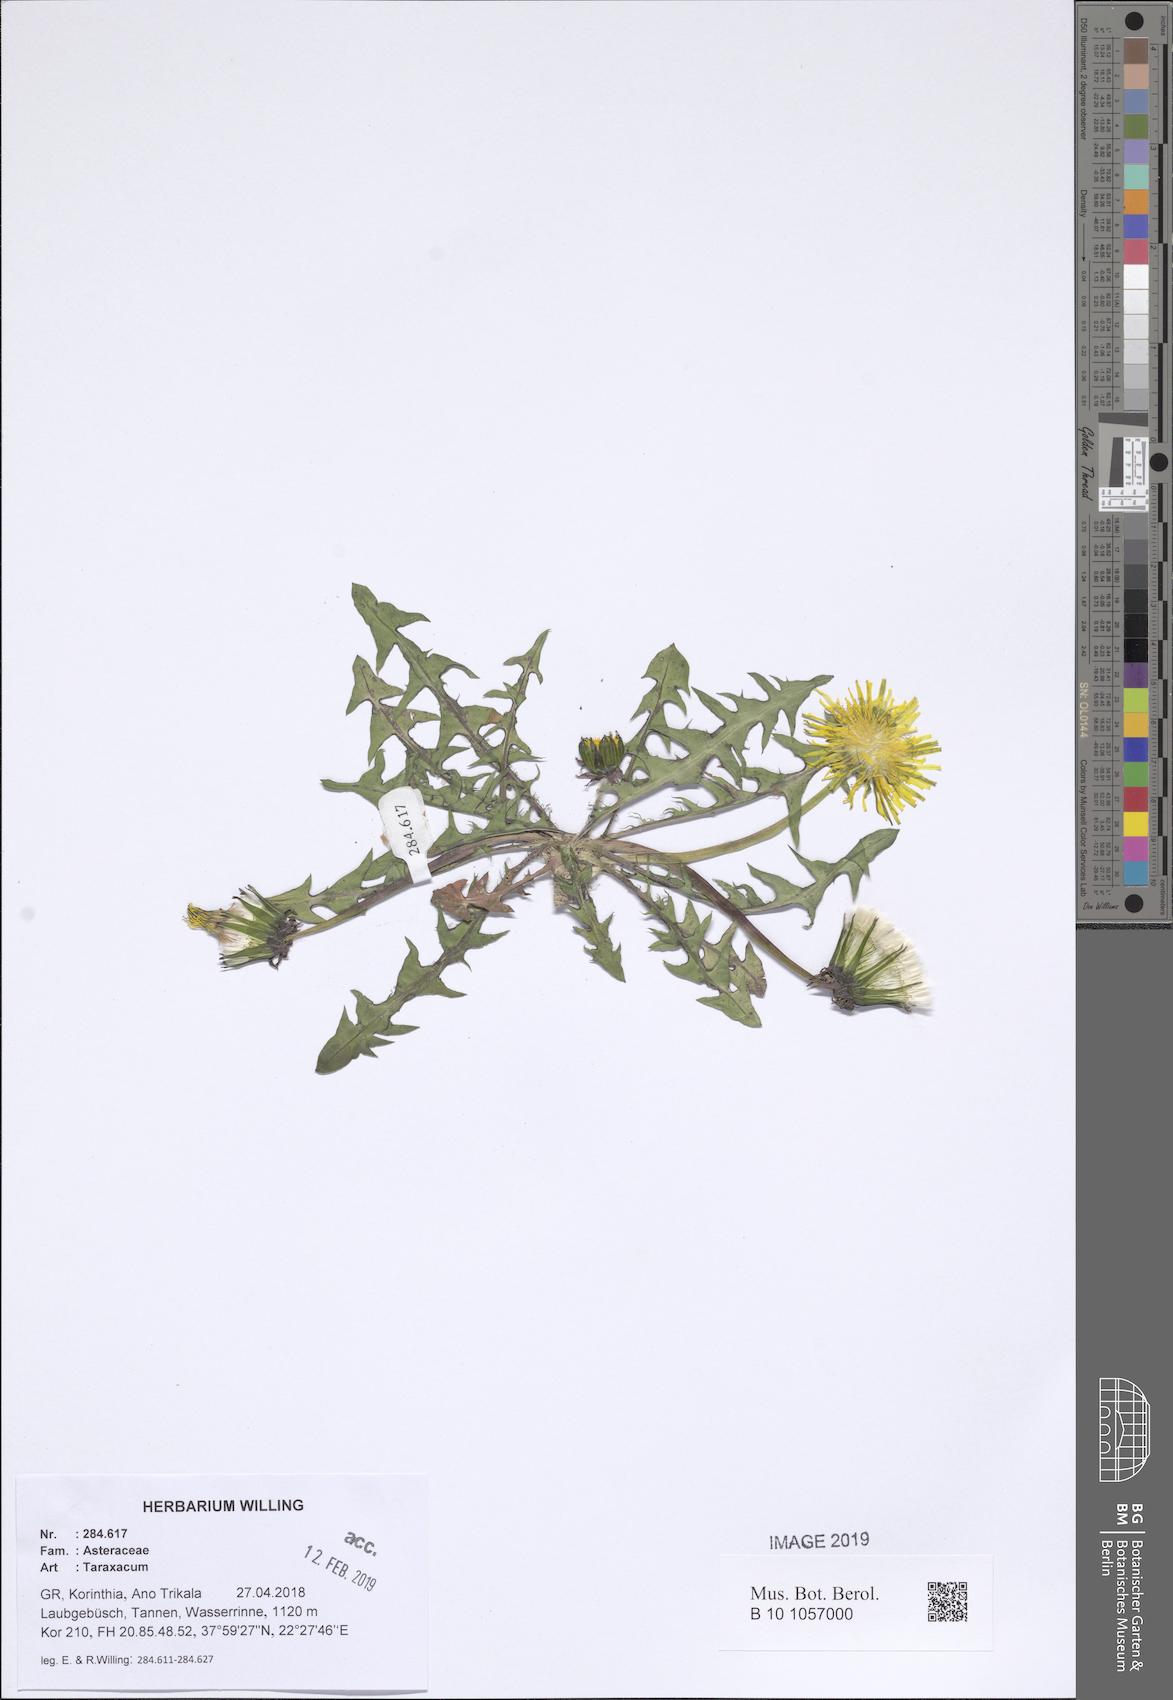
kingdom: Plantae
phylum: Tracheophyta
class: Magnoliopsida
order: Asterales
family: Asteraceae
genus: Taraxacum
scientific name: Taraxacum
